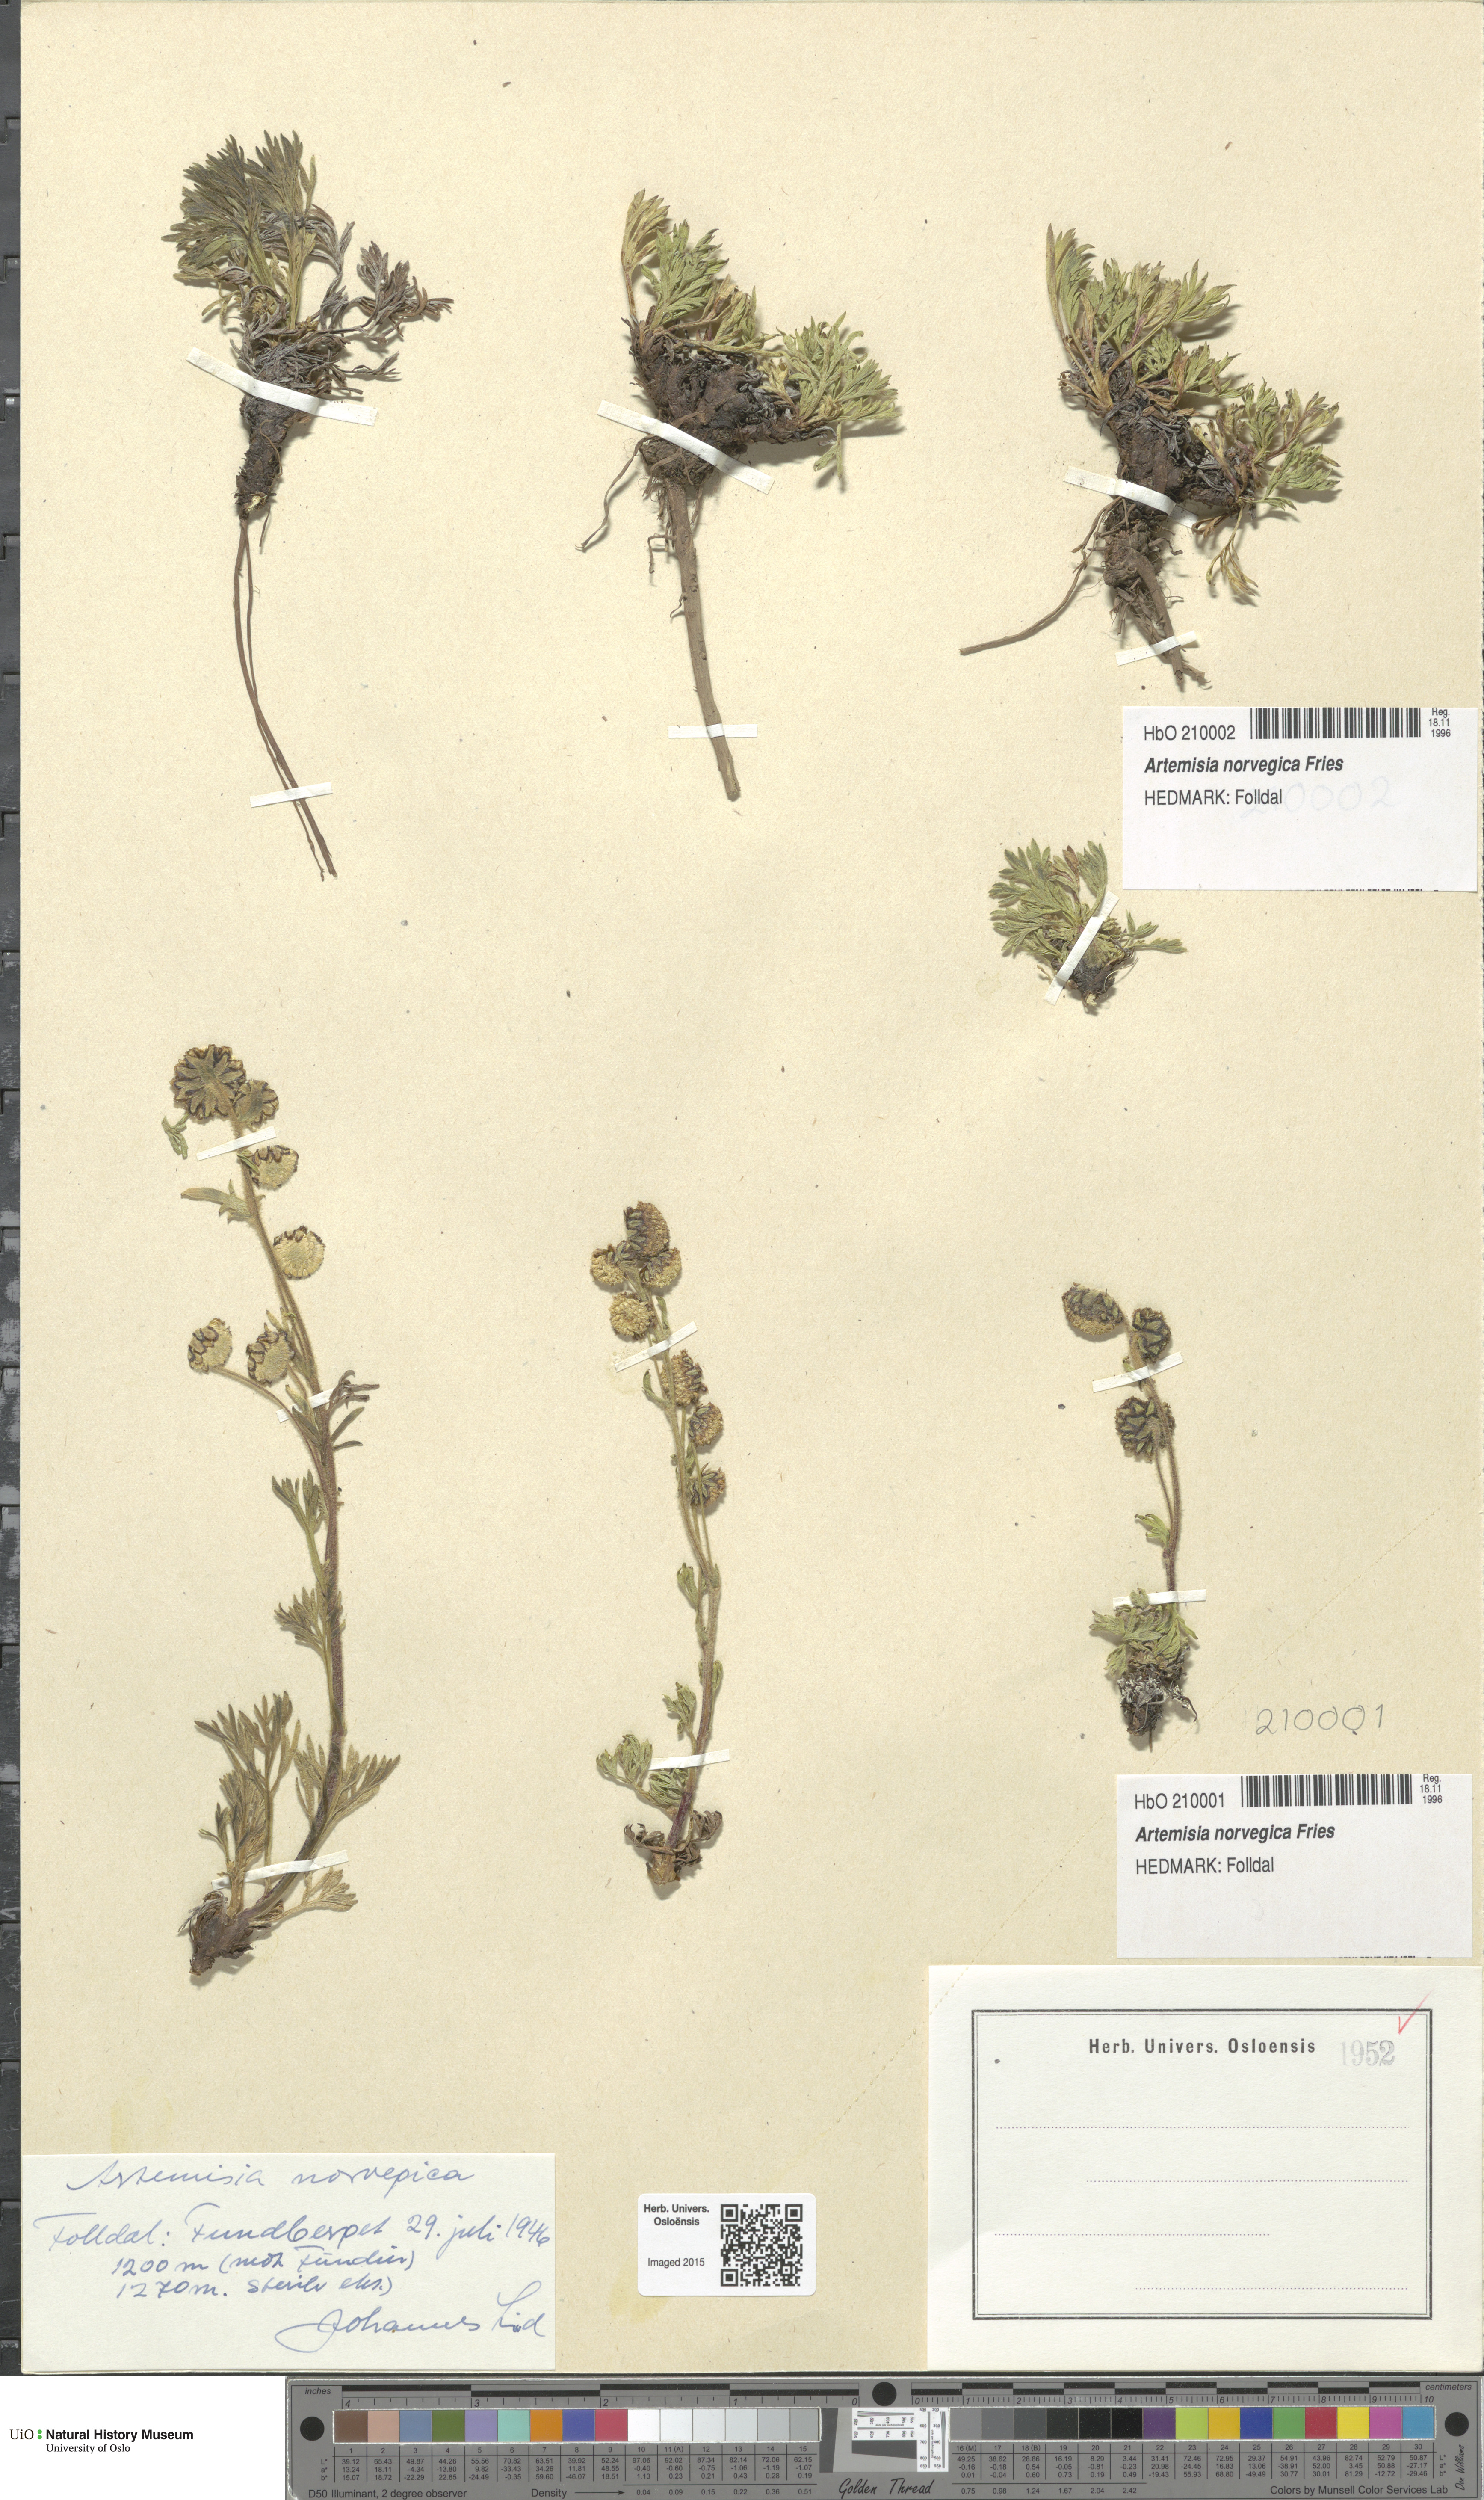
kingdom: Plantae
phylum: Tracheophyta
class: Magnoliopsida
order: Asterales
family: Asteraceae
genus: Artemisia
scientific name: Artemisia norvegica
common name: Norwegian mugwort
